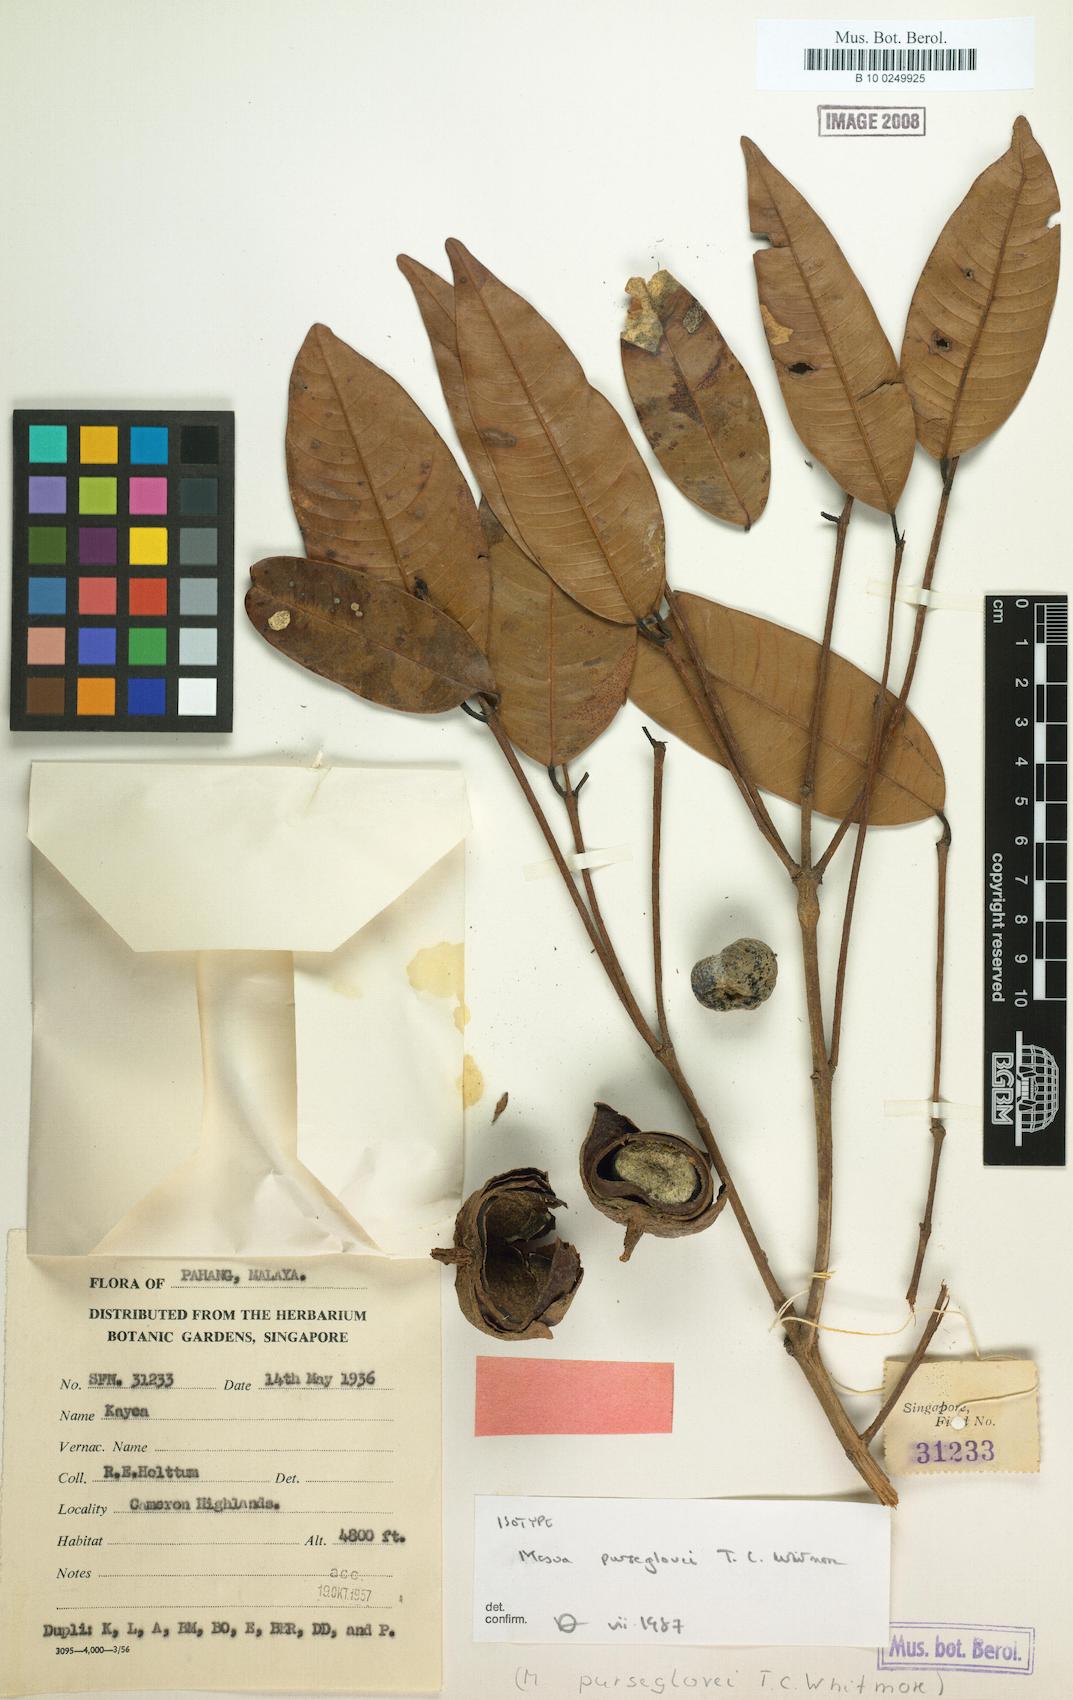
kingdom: Plantae
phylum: Tracheophyta
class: Magnoliopsida
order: Malpighiales
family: Calophyllaceae
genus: Mesua
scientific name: Mesua purseglovei
